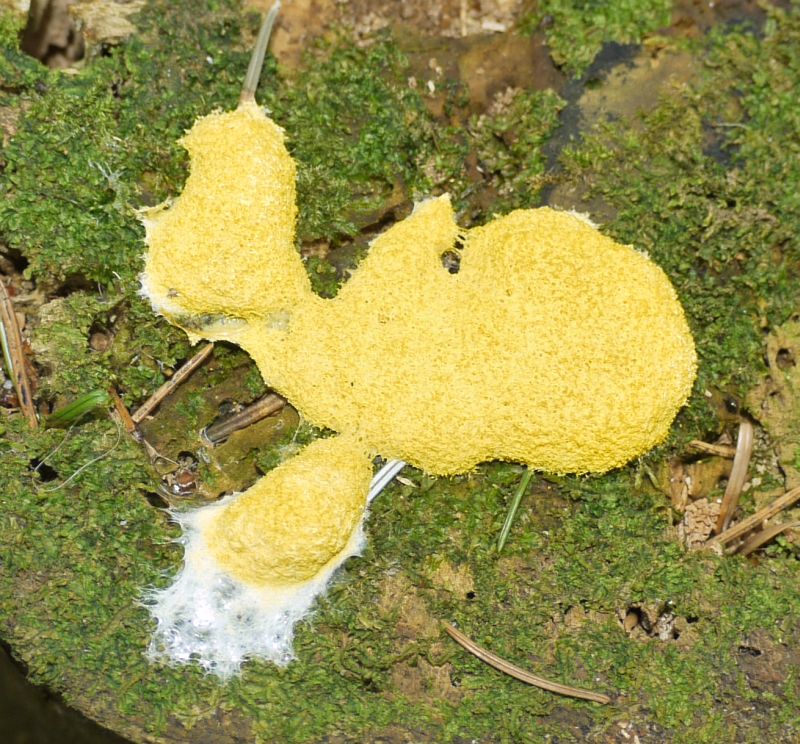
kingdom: Protozoa
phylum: Mycetozoa
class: Myxomycetes
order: Physarales
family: Physaraceae
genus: Fuligo
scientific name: Fuligo septica
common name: gul troldsmør
